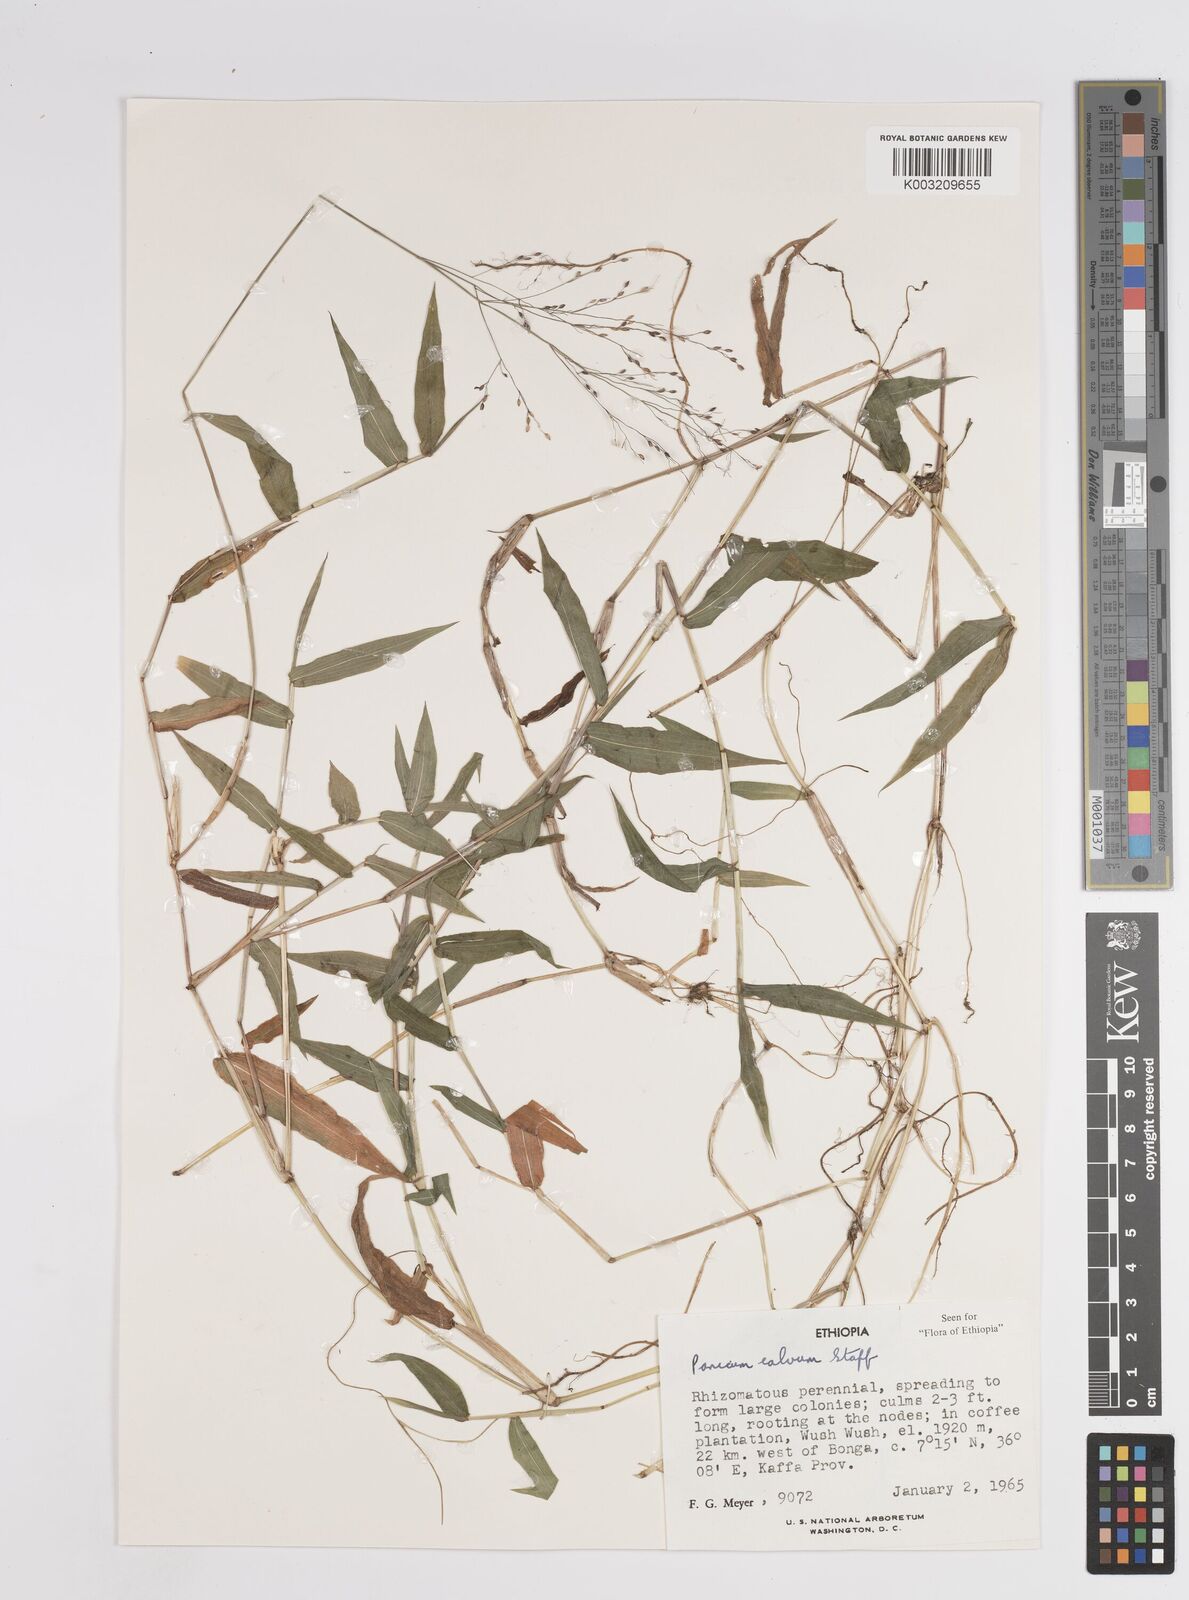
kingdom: Plantae
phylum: Tracheophyta
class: Liliopsida
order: Poales
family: Poaceae
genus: Panicum
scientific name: Panicum calvum
